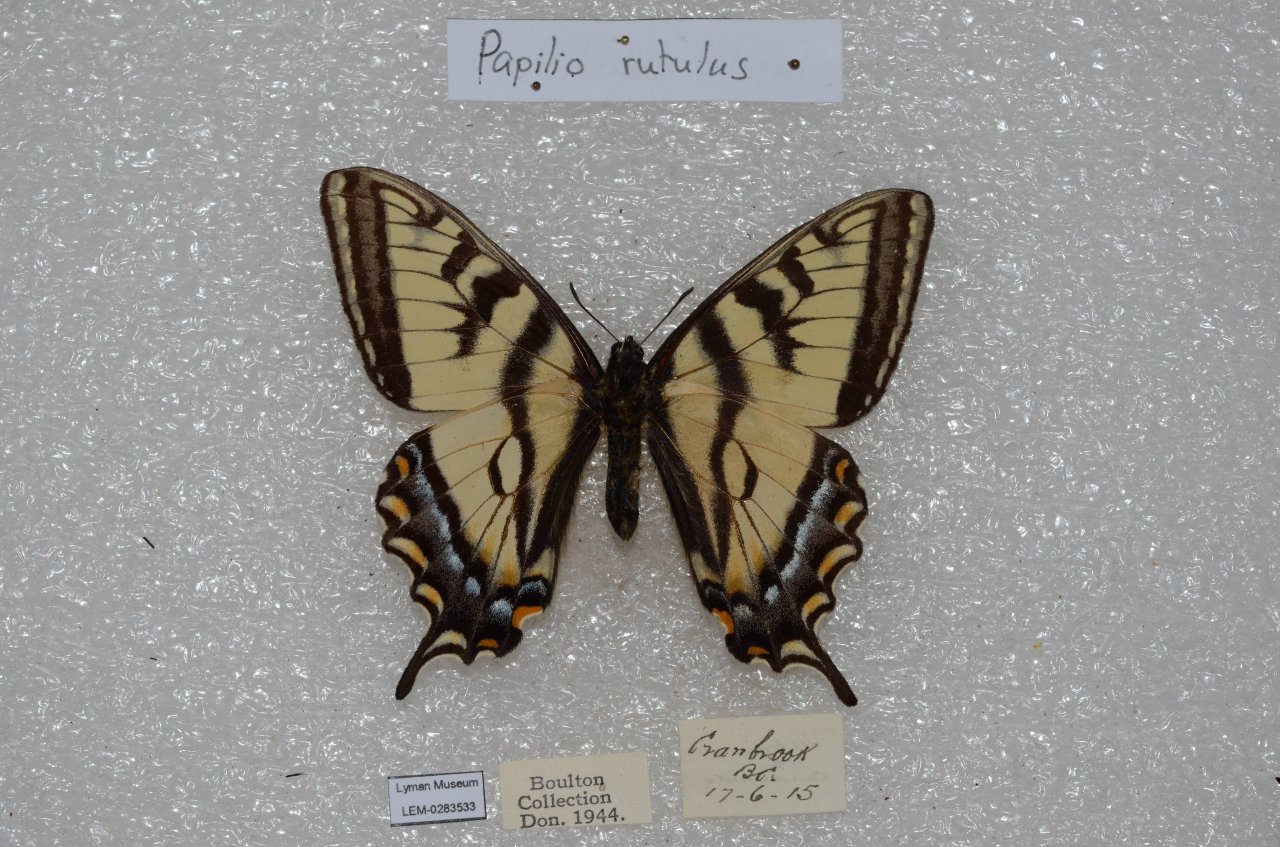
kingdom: Animalia
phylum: Arthropoda
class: Insecta
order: Lepidoptera
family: Papilionidae
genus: Pterourus
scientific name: Pterourus rutulus
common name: Western Tiger Swallowtail
